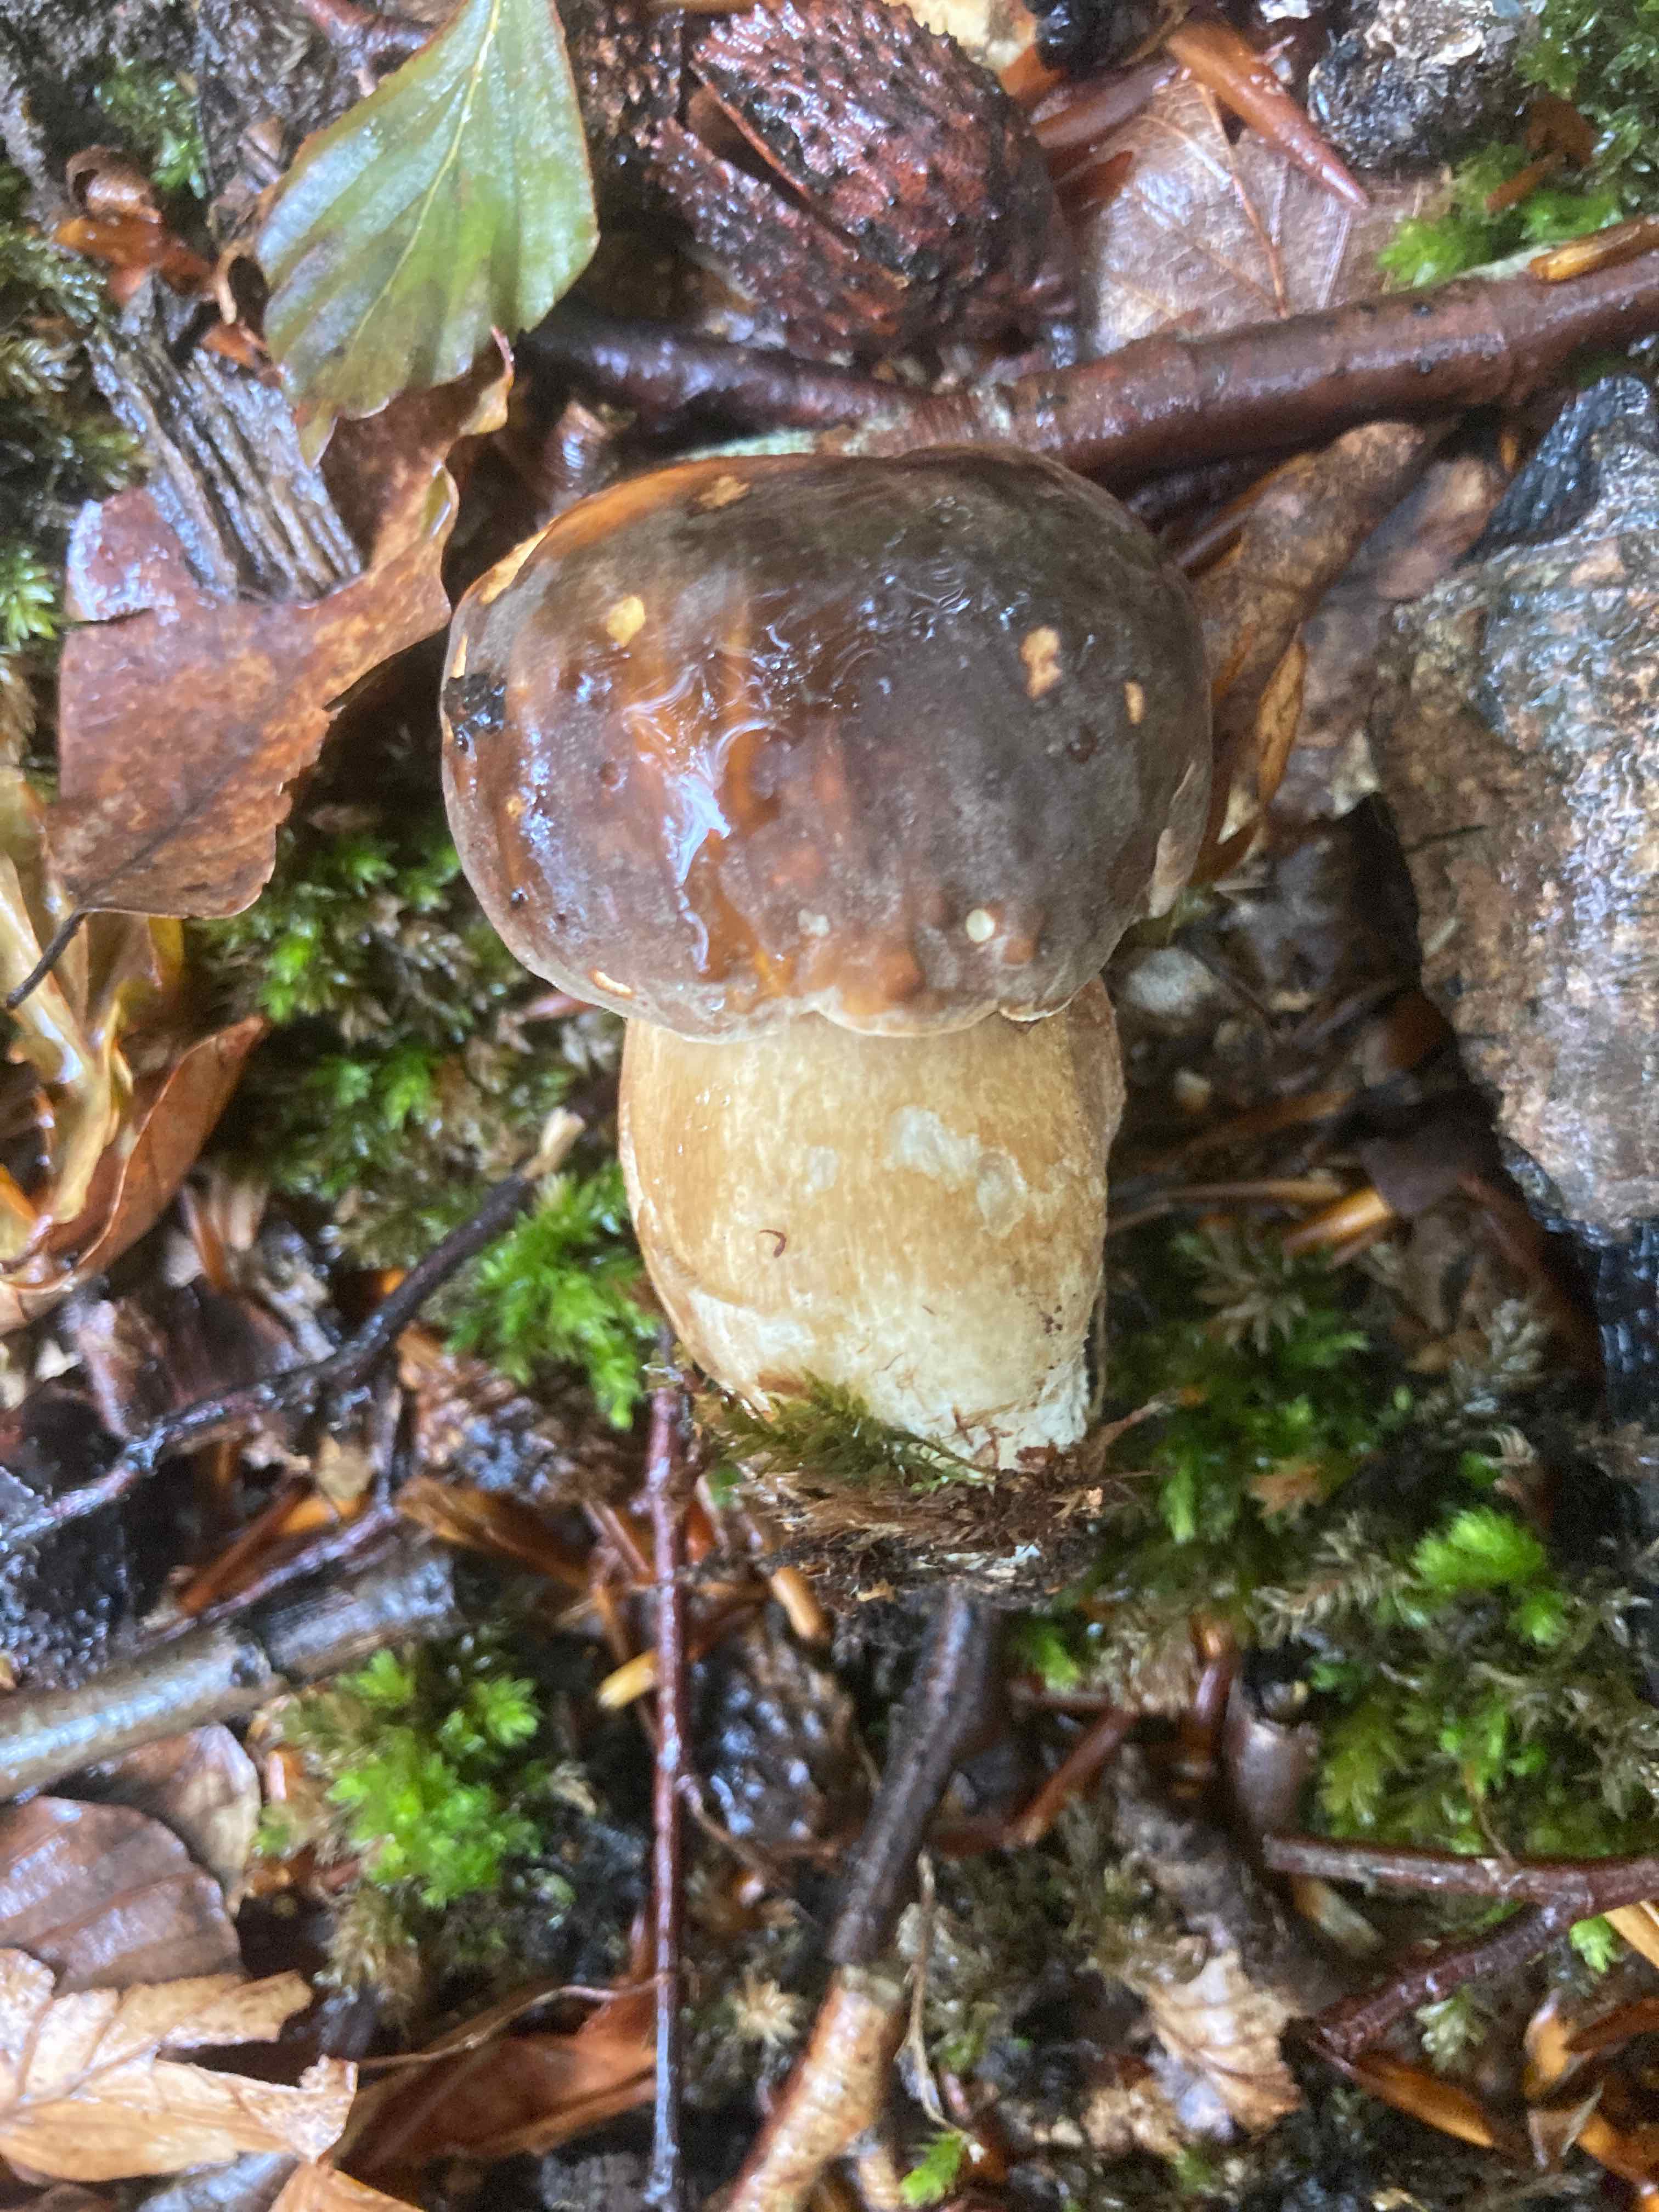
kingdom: Fungi
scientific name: Fungi
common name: bronze-rørhat
